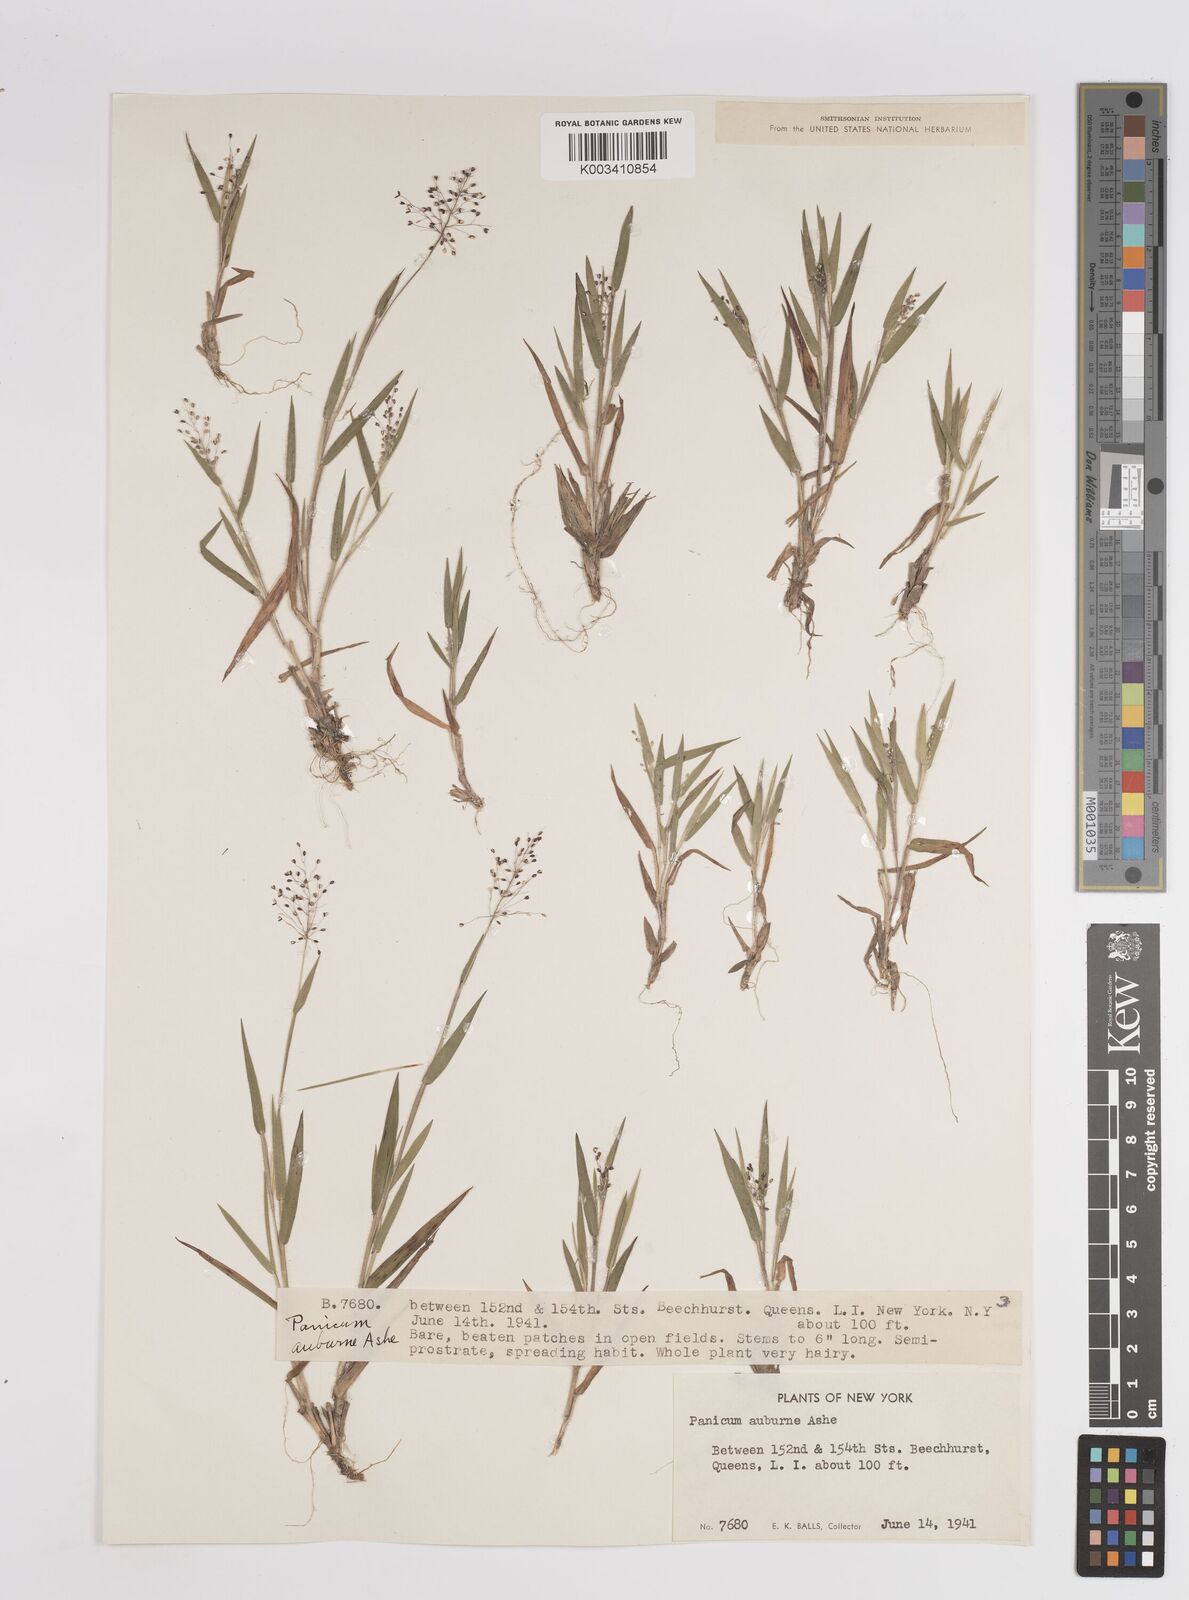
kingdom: Plantae
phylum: Tracheophyta
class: Liliopsida
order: Poales
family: Poaceae
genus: Dichanthelium
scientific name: Dichanthelium acuminatum
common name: Hairy panic grass
